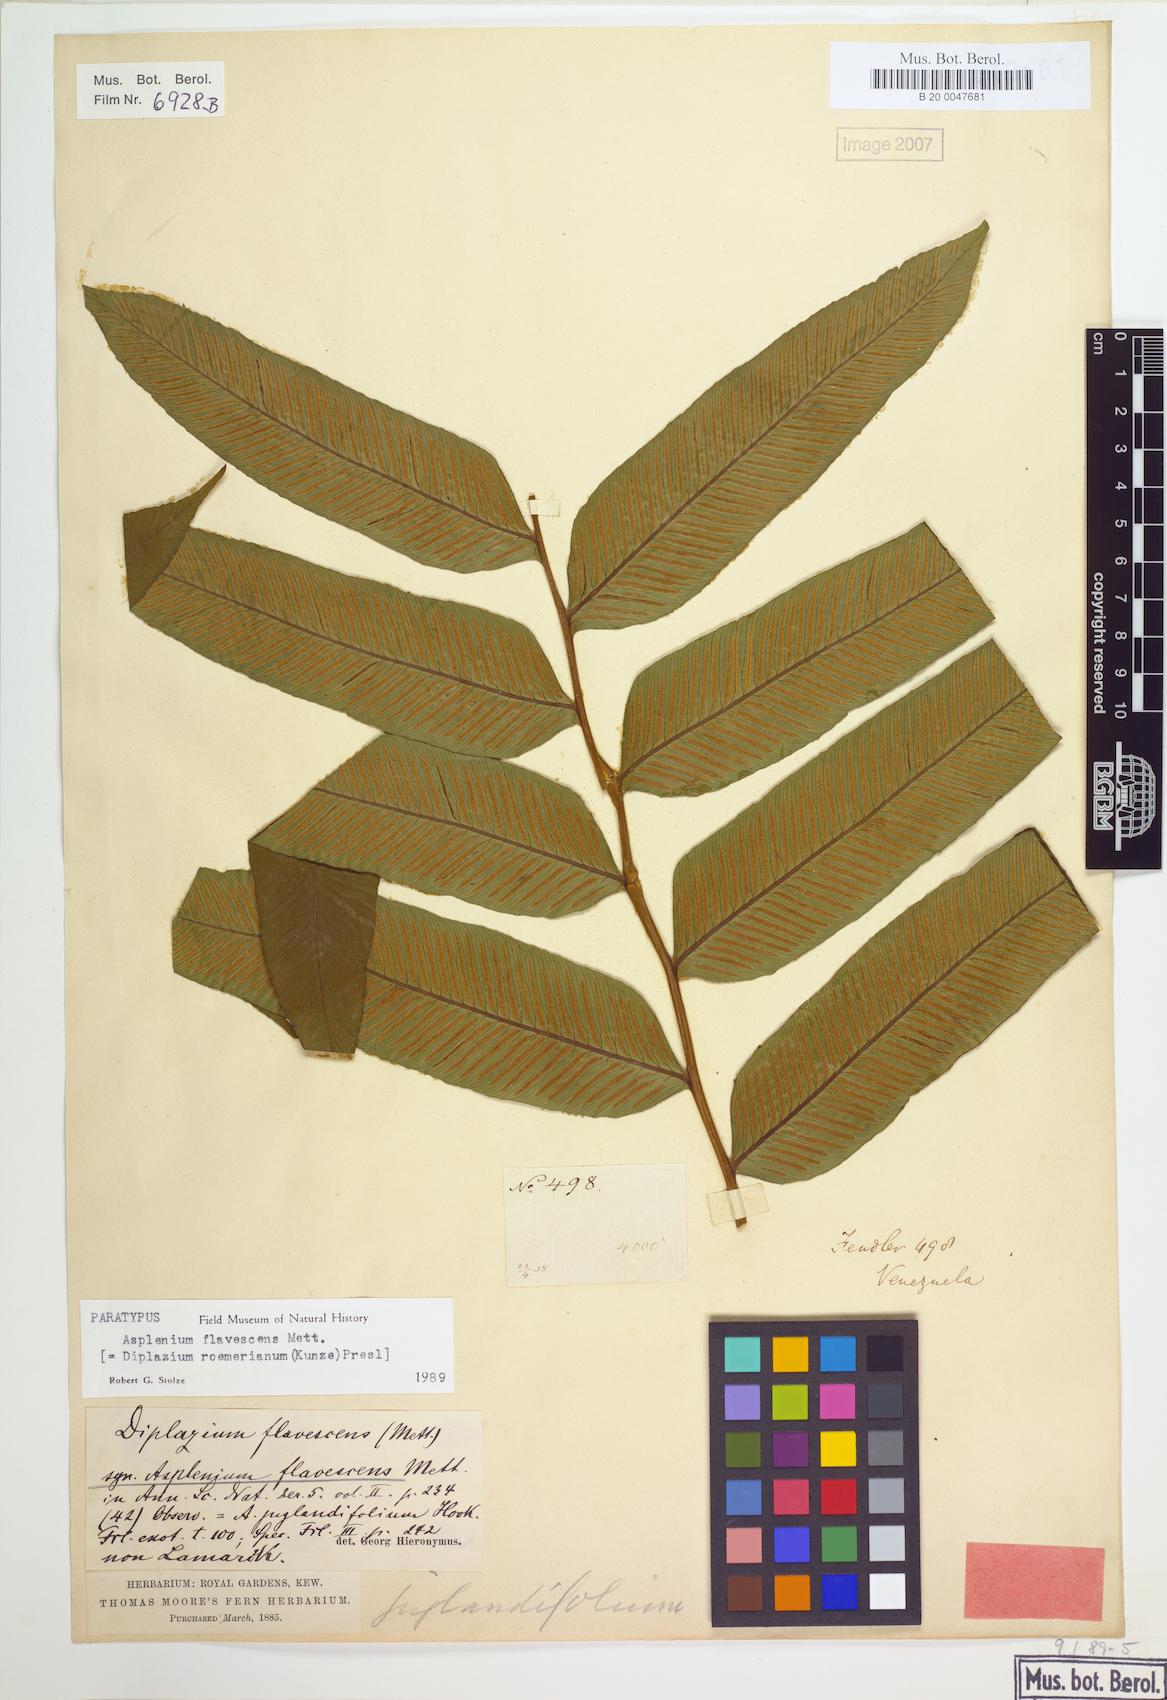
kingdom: Plantae
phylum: Tracheophyta
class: Polypodiopsida
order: Polypodiales
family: Athyriaceae
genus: Diplazium
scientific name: Diplazium roemerianum
